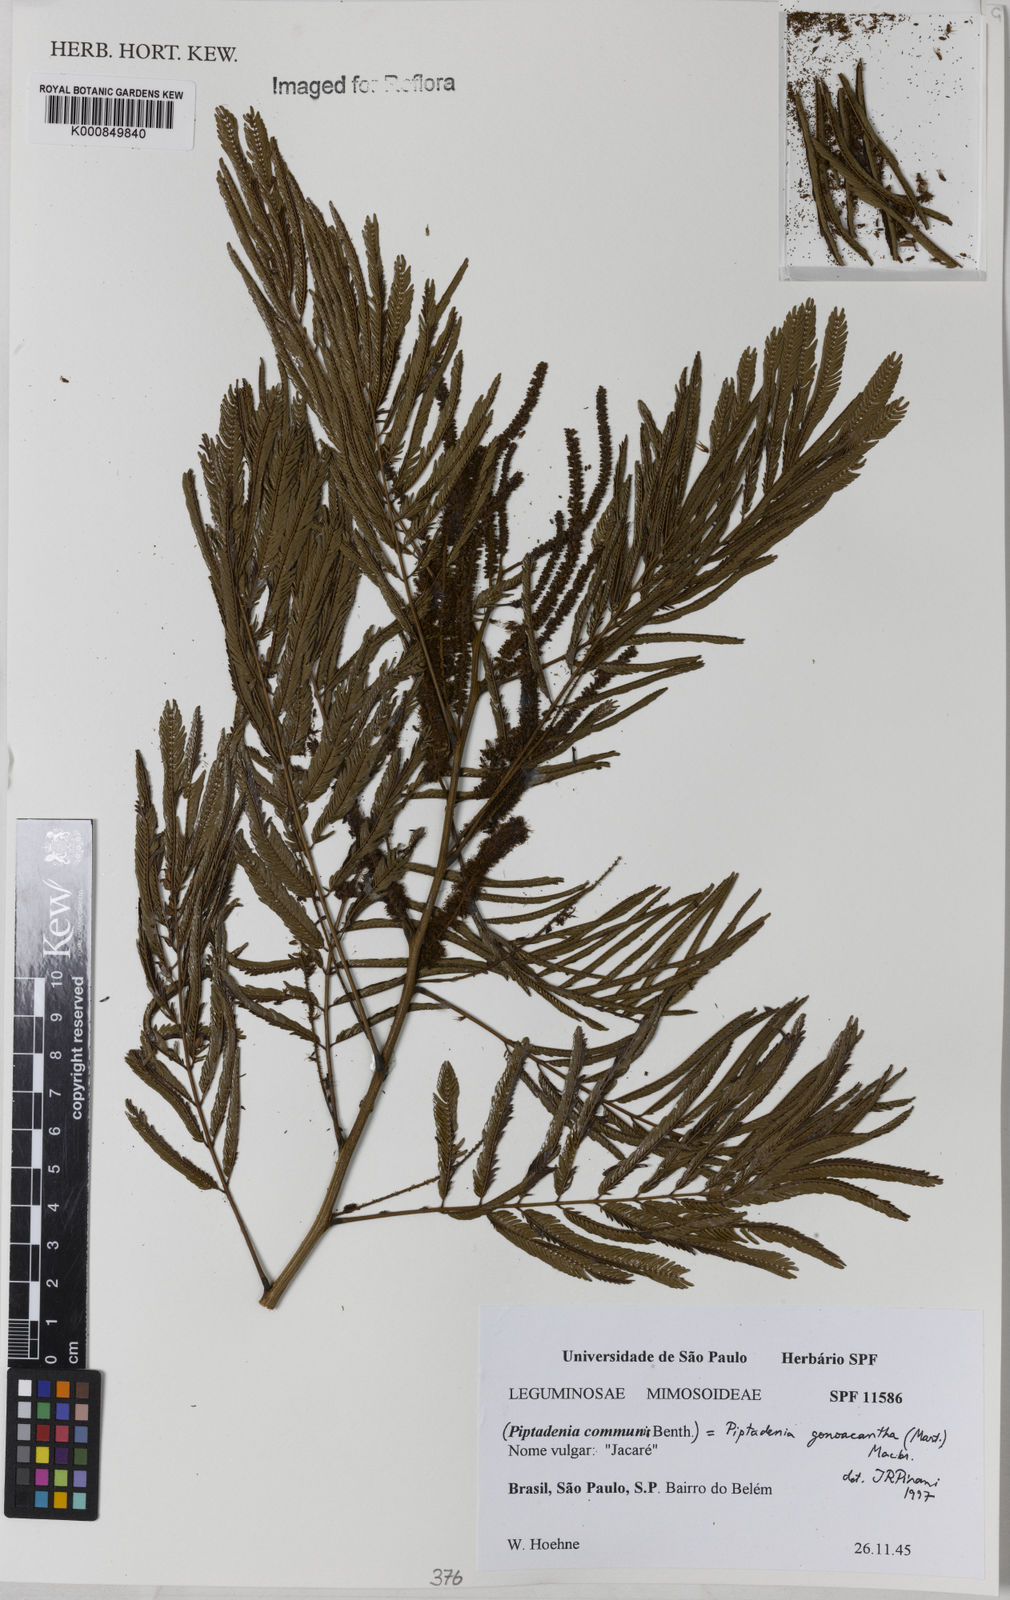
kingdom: Plantae
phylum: Tracheophyta
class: Magnoliopsida
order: Fabales
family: Fabaceae
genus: Piptadenia
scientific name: Piptadenia gonoacantha
